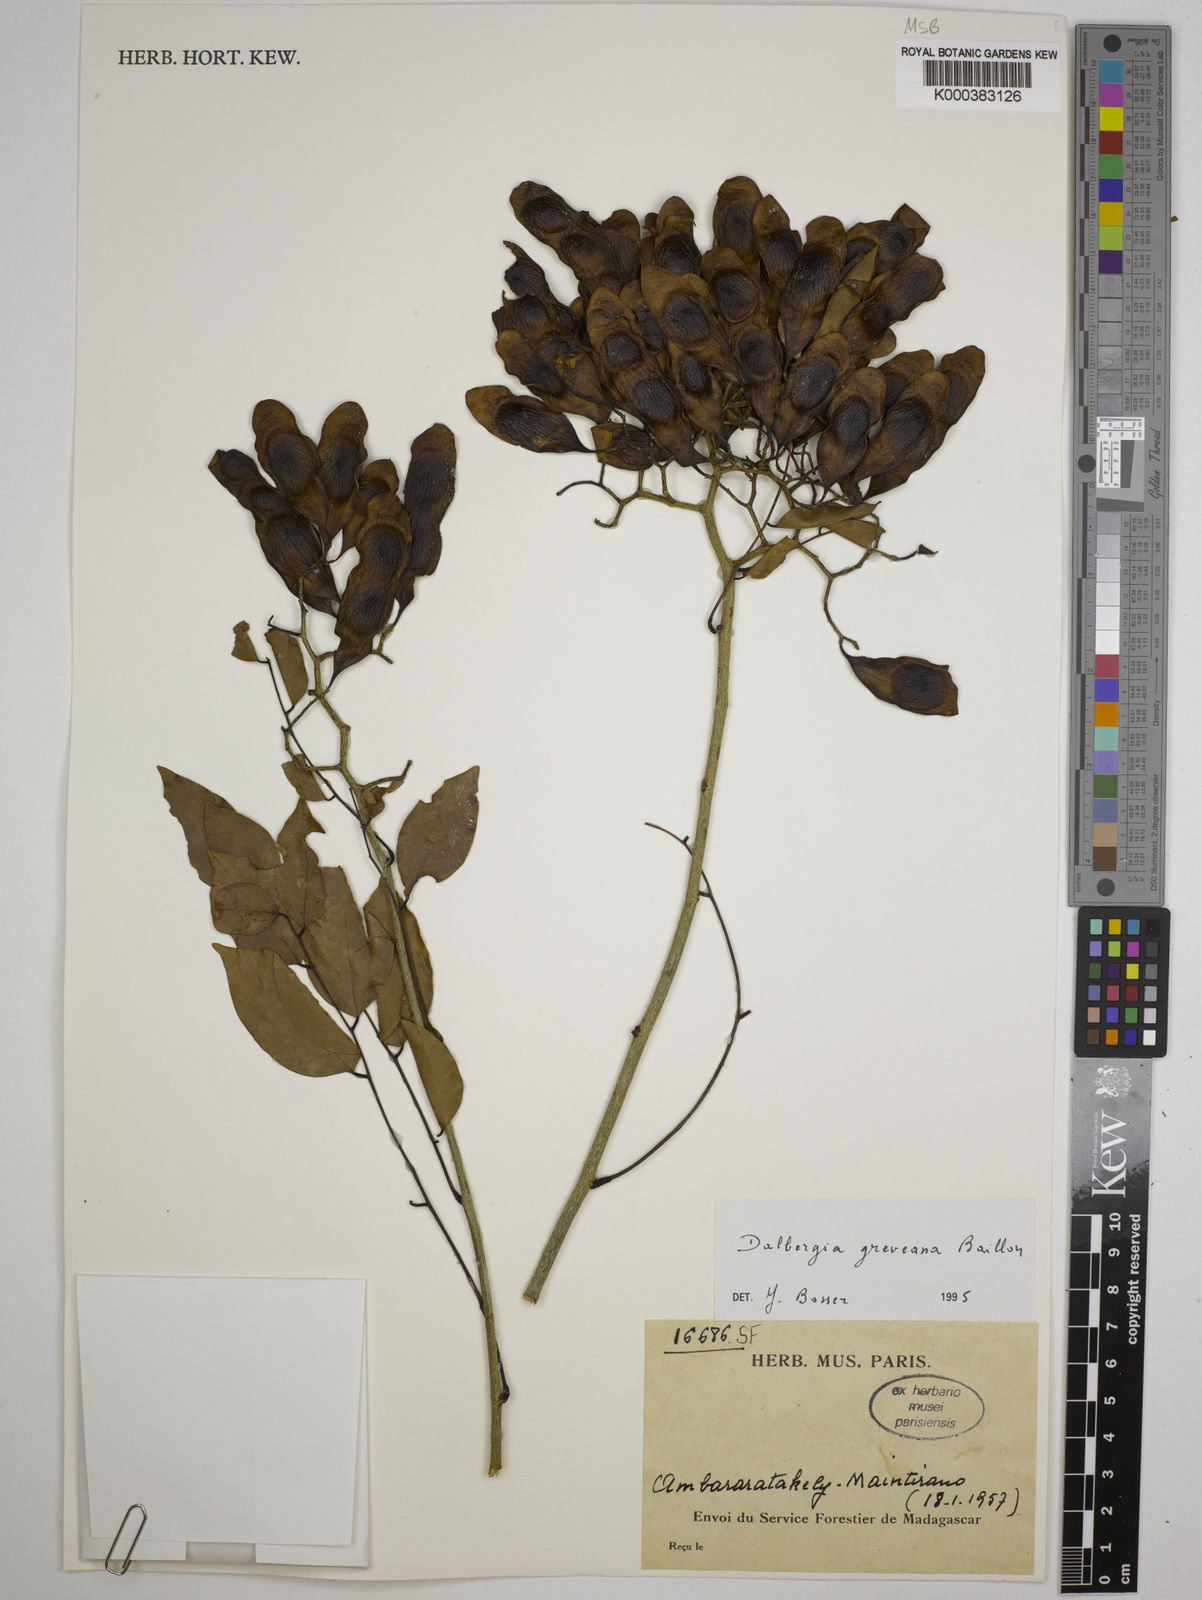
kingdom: Plantae
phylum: Tracheophyta
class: Magnoliopsida
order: Fabales
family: Fabaceae
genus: Dalbergia
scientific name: Dalbergia greveana
